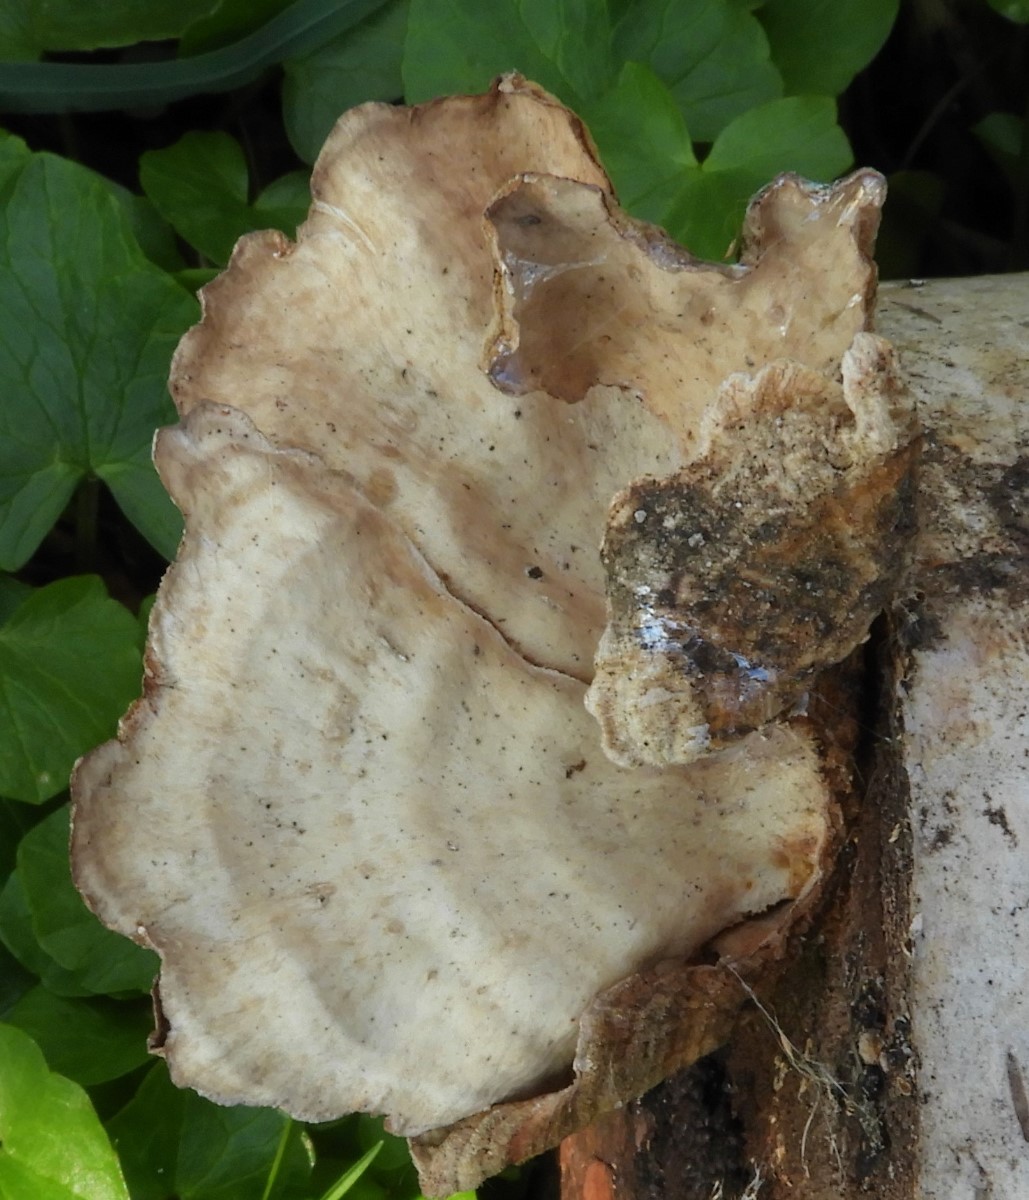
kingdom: Fungi
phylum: Basidiomycota
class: Agaricomycetes
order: Russulales
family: Stereaceae
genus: Stereum
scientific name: Stereum subtomentosum
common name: smuk lædersvamp
